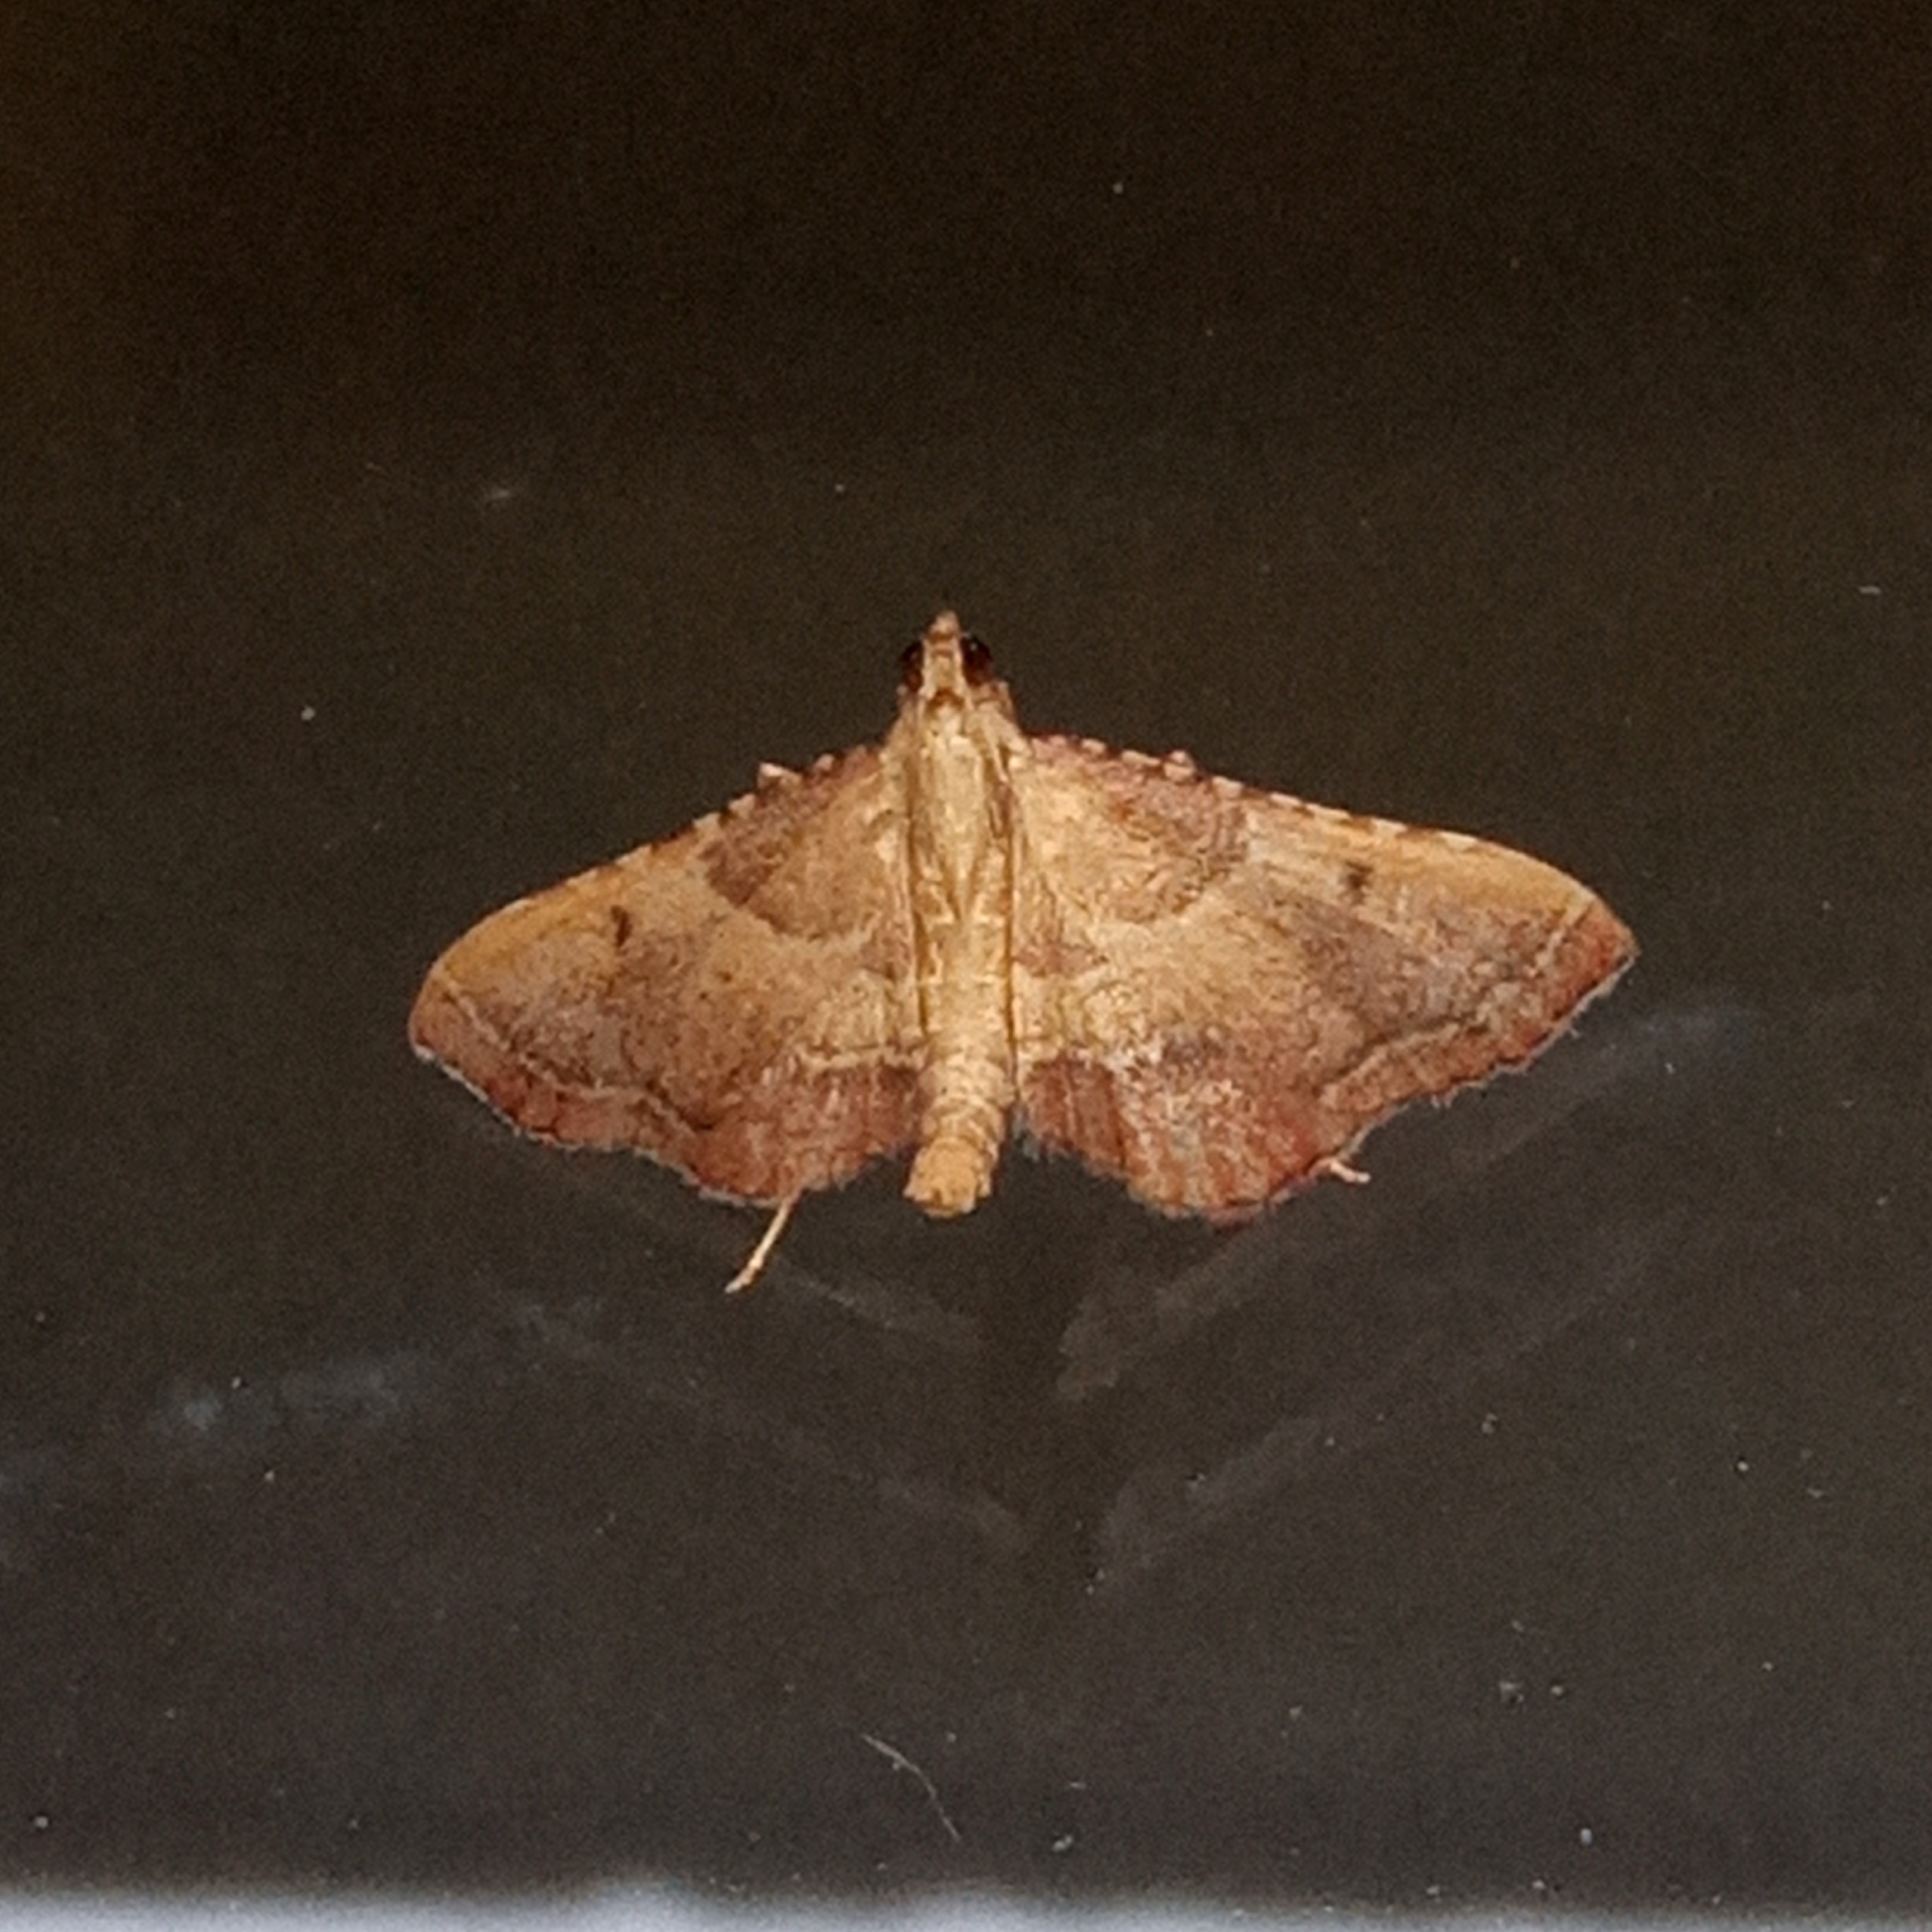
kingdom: Animalia
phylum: Arthropoda
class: Insecta
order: Lepidoptera
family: Pyralidae
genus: Endotricha
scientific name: Endotricha flammealis
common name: Løvkrathalvmøl
